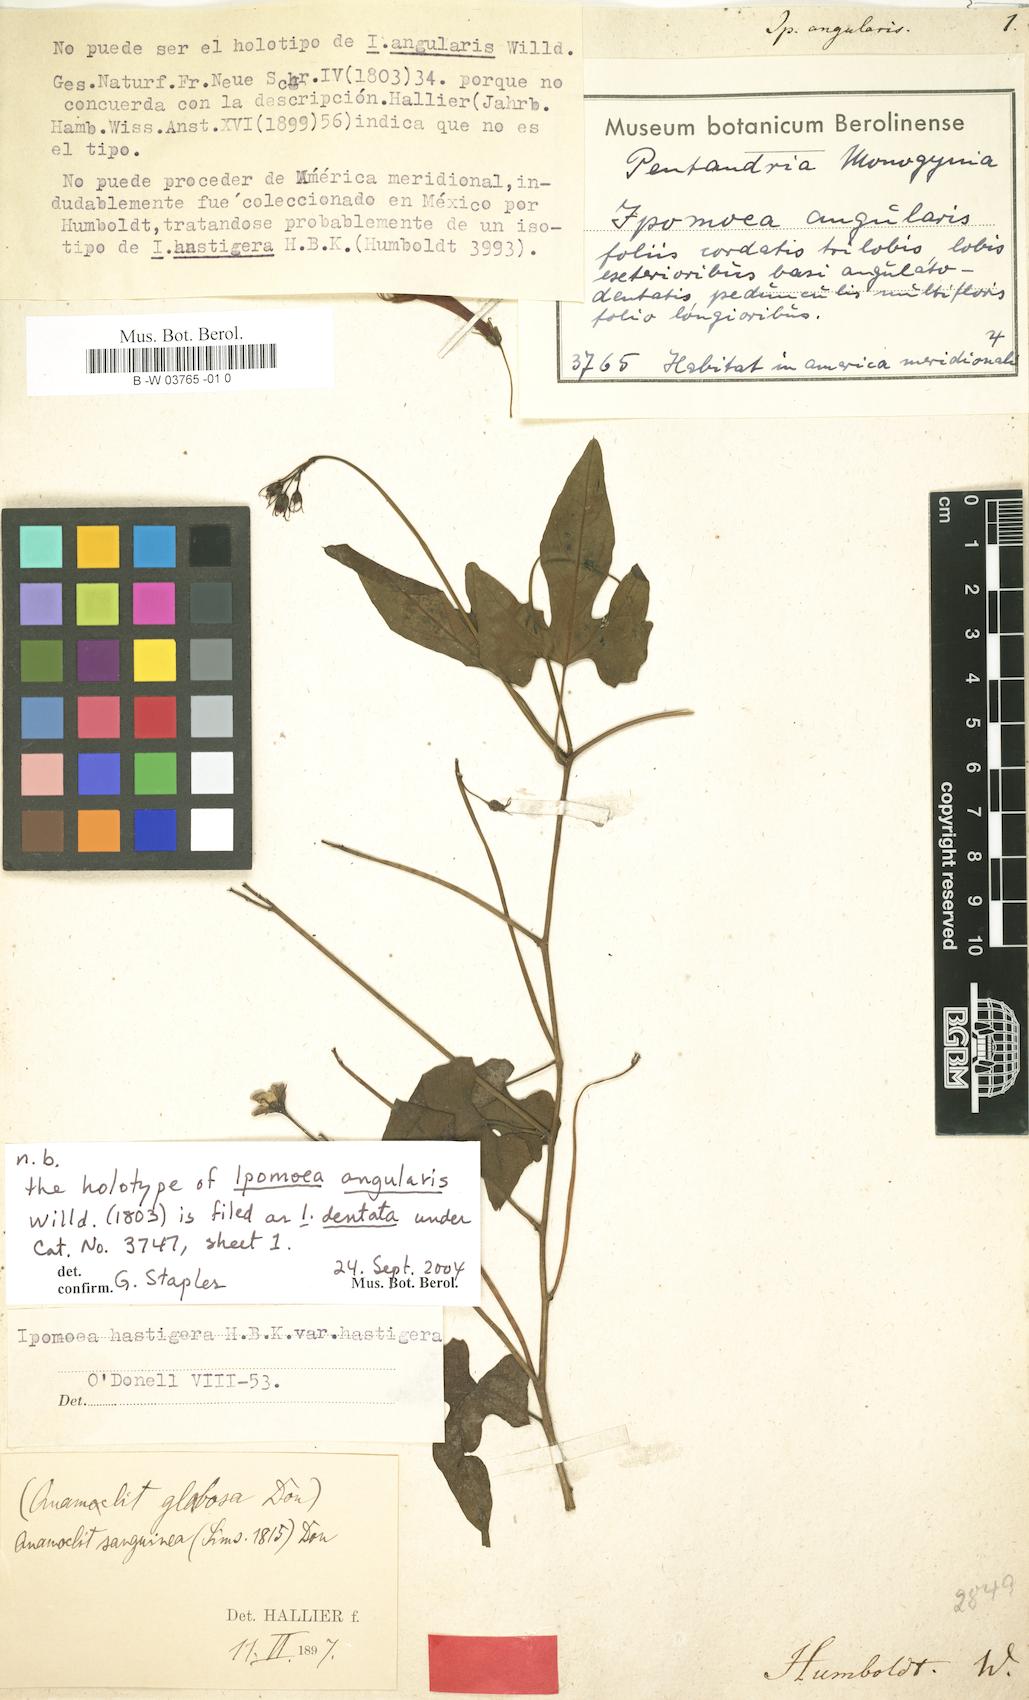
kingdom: Plantae
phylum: Tracheophyta
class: Magnoliopsida
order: Solanales
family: Convolvulaceae
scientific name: Convolvulaceae
